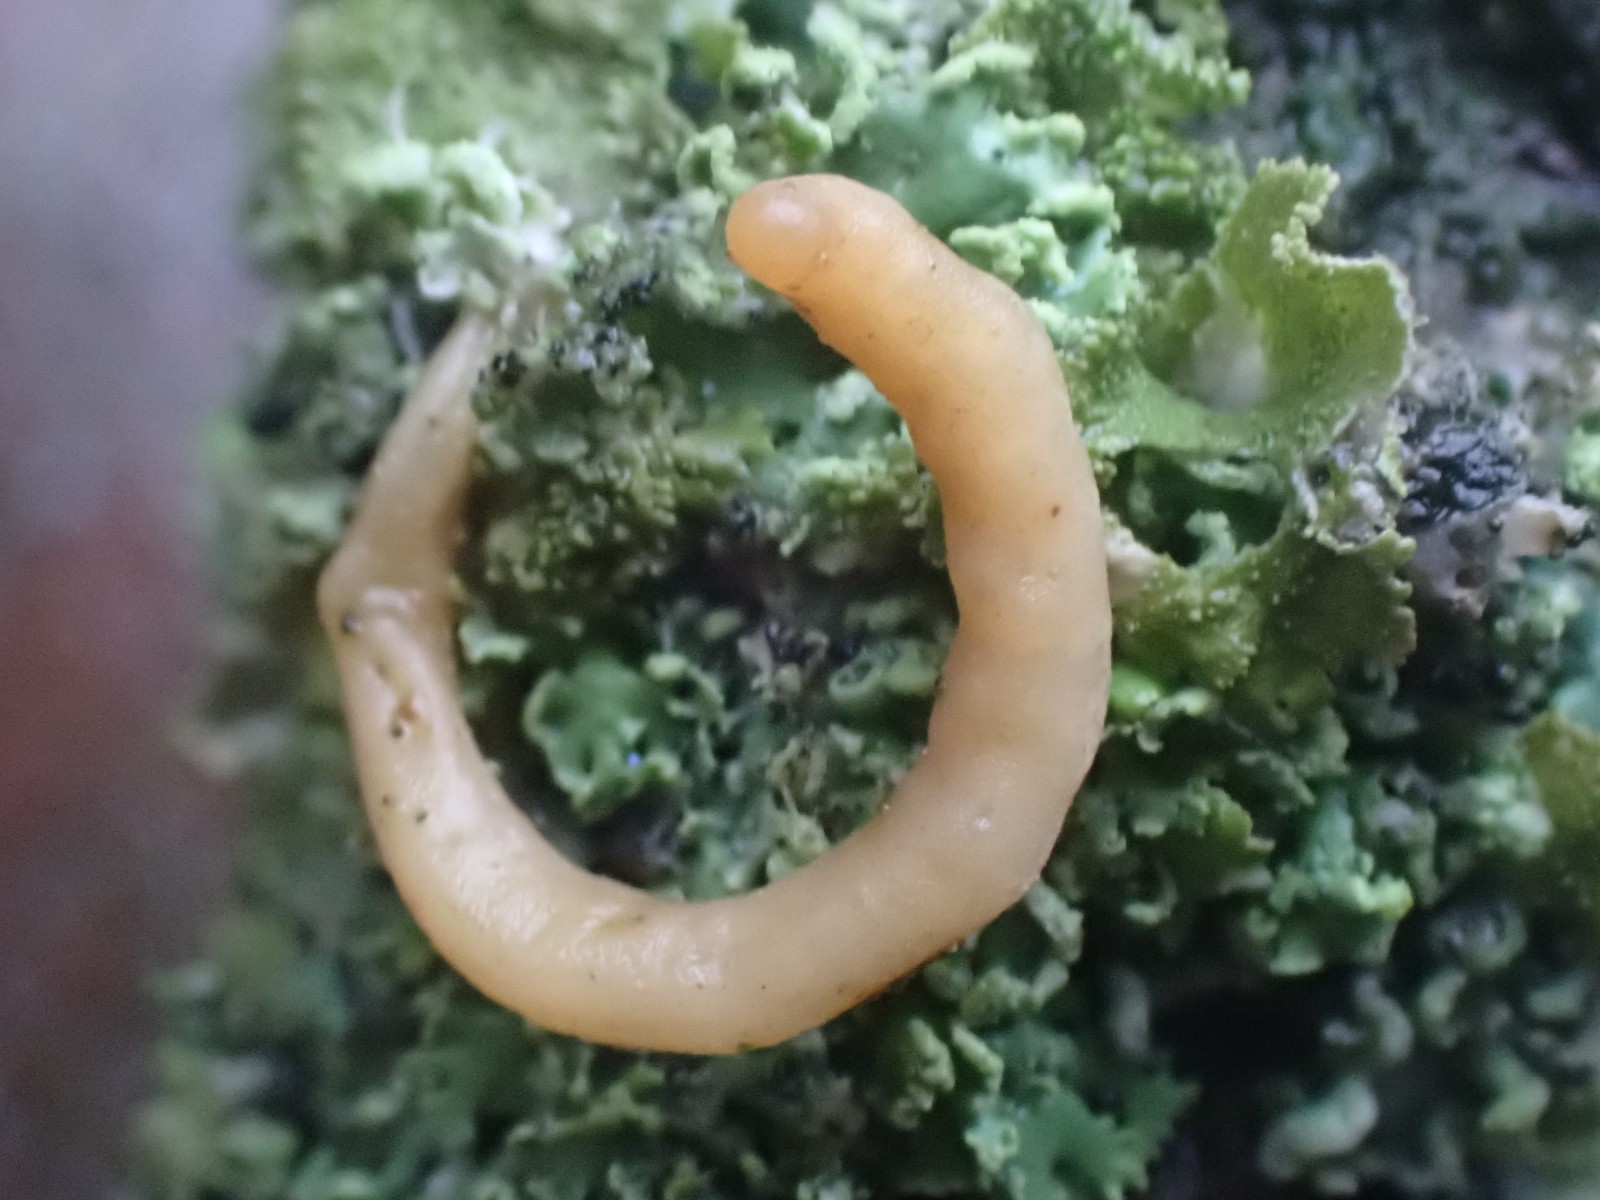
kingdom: Fungi
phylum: Basidiomycota
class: Agaricomycetes
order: Agaricales
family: Typhulaceae
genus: Typhula
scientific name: Typhula contorta
